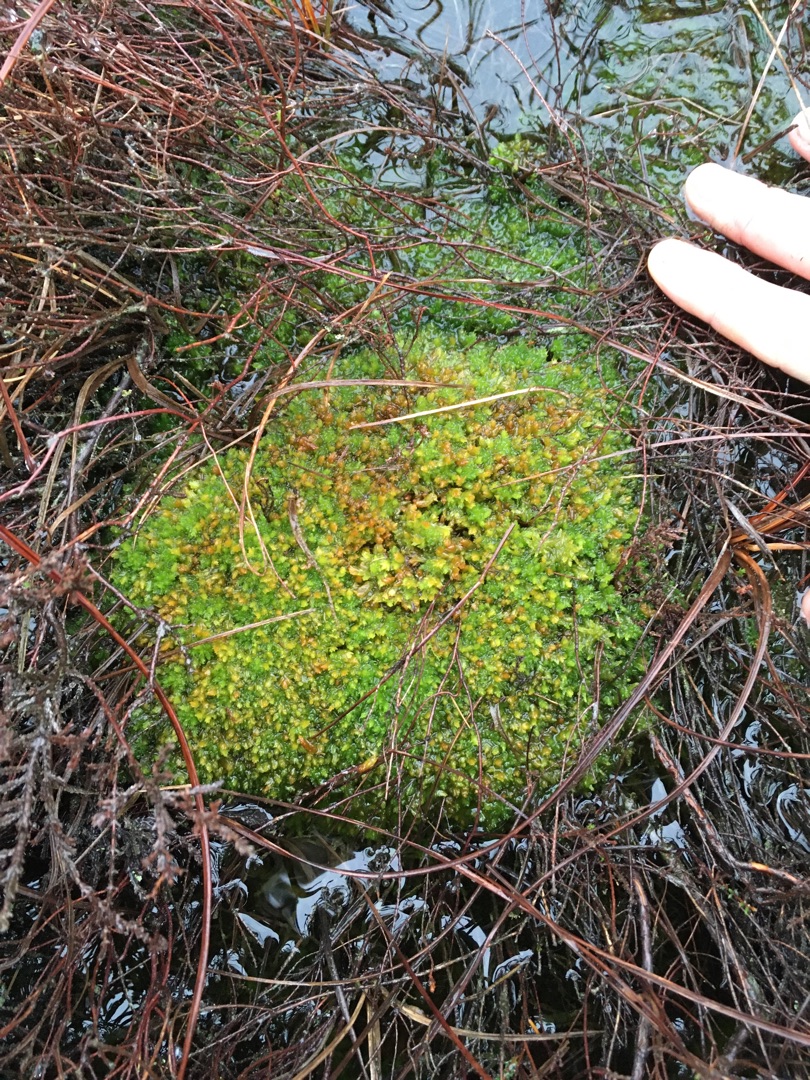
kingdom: Plantae
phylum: Bryophyta
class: Sphagnopsida
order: Sphagnales
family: Sphagnaceae
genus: Sphagnum
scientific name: Sphagnum compactum
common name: Tæt tørvemos
